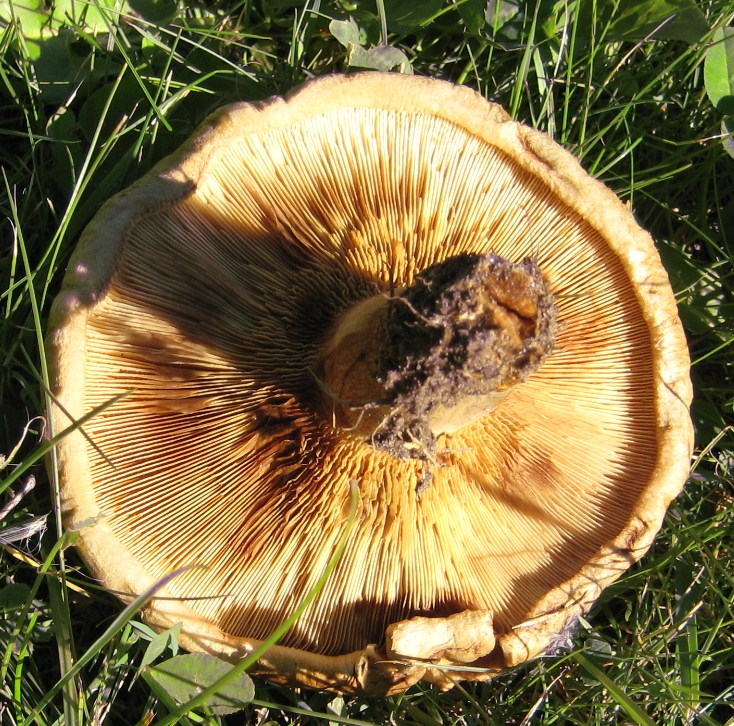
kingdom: Fungi
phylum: Basidiomycota
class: Agaricomycetes
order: Boletales
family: Paxillaceae
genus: Paxillus
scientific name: Paxillus involutus
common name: almindelig netbladhat
